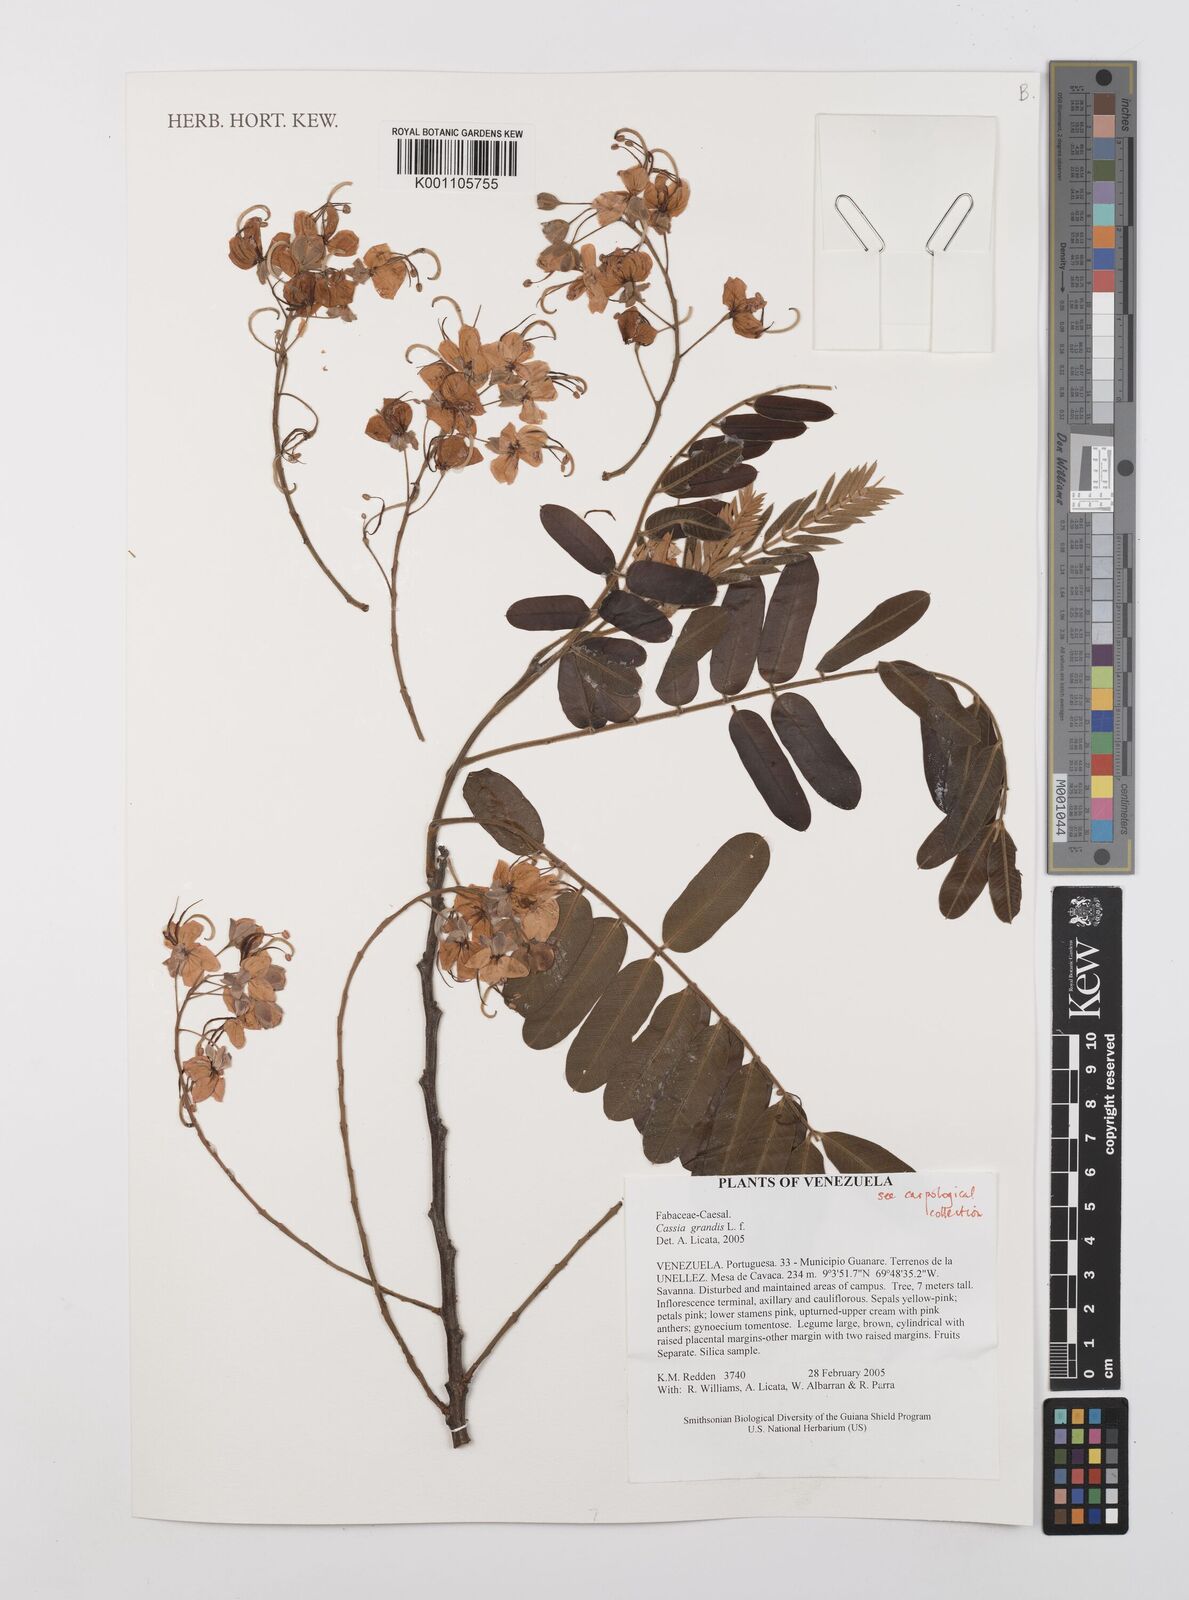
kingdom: Plantae
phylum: Tracheophyta
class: Magnoliopsida
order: Fabales
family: Fabaceae
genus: Cassia
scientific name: Cassia grandis
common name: Appleblossom cassia
